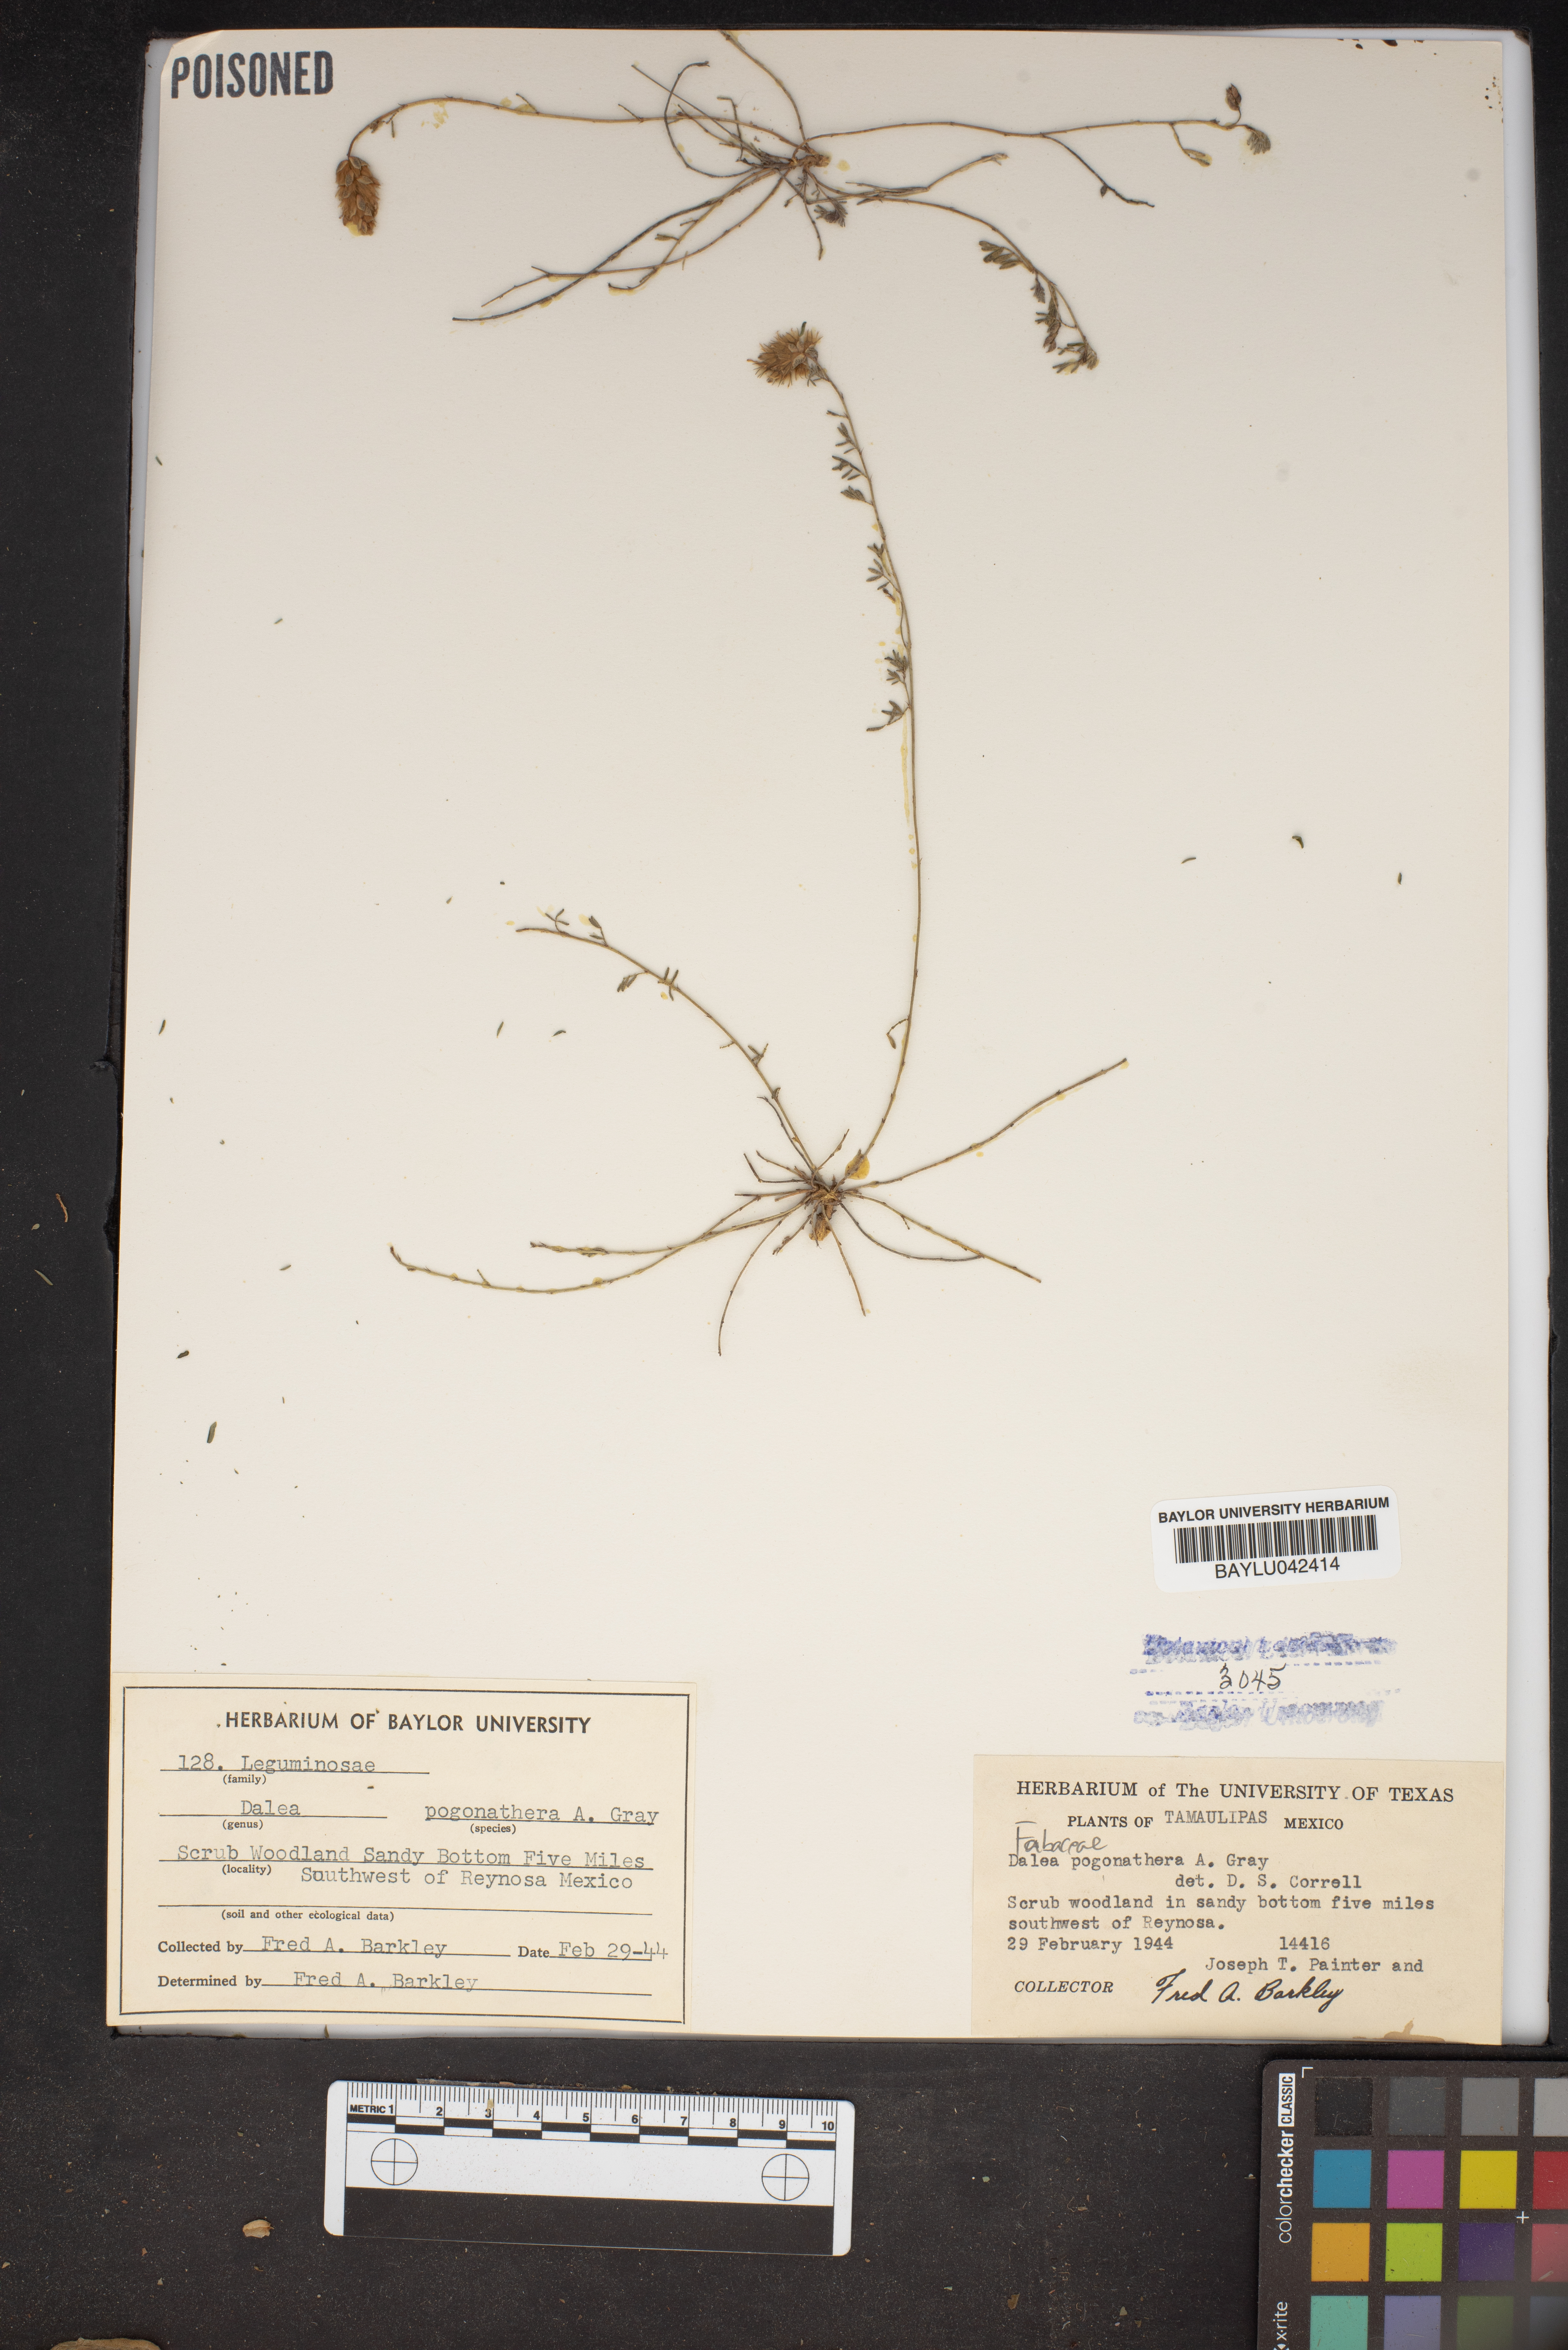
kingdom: Plantae
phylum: Tracheophyta
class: Magnoliopsida
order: Fabales
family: Fabaceae
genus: Dalea
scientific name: Dalea pogonathera
